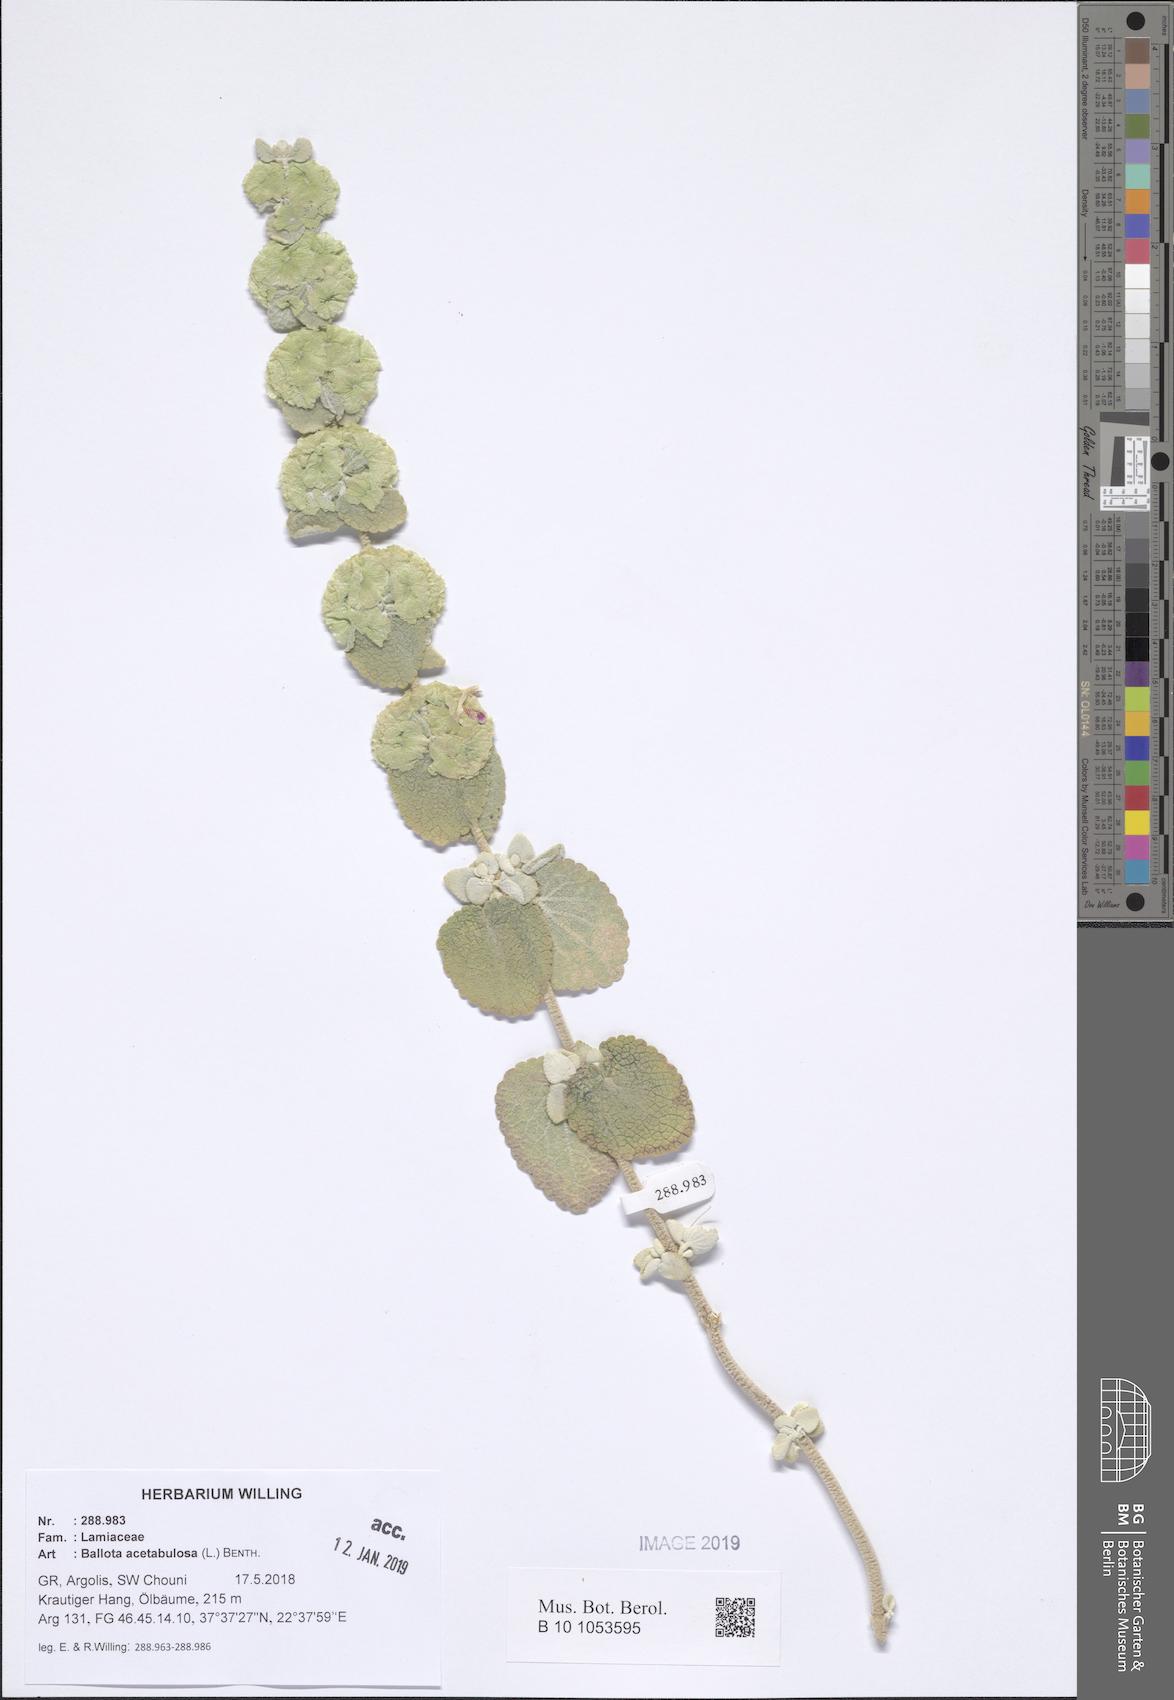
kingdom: Plantae
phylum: Tracheophyta
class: Magnoliopsida
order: Lamiales
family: Lamiaceae
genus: Pseudodictamnus
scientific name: Pseudodictamnus acetabulosus
